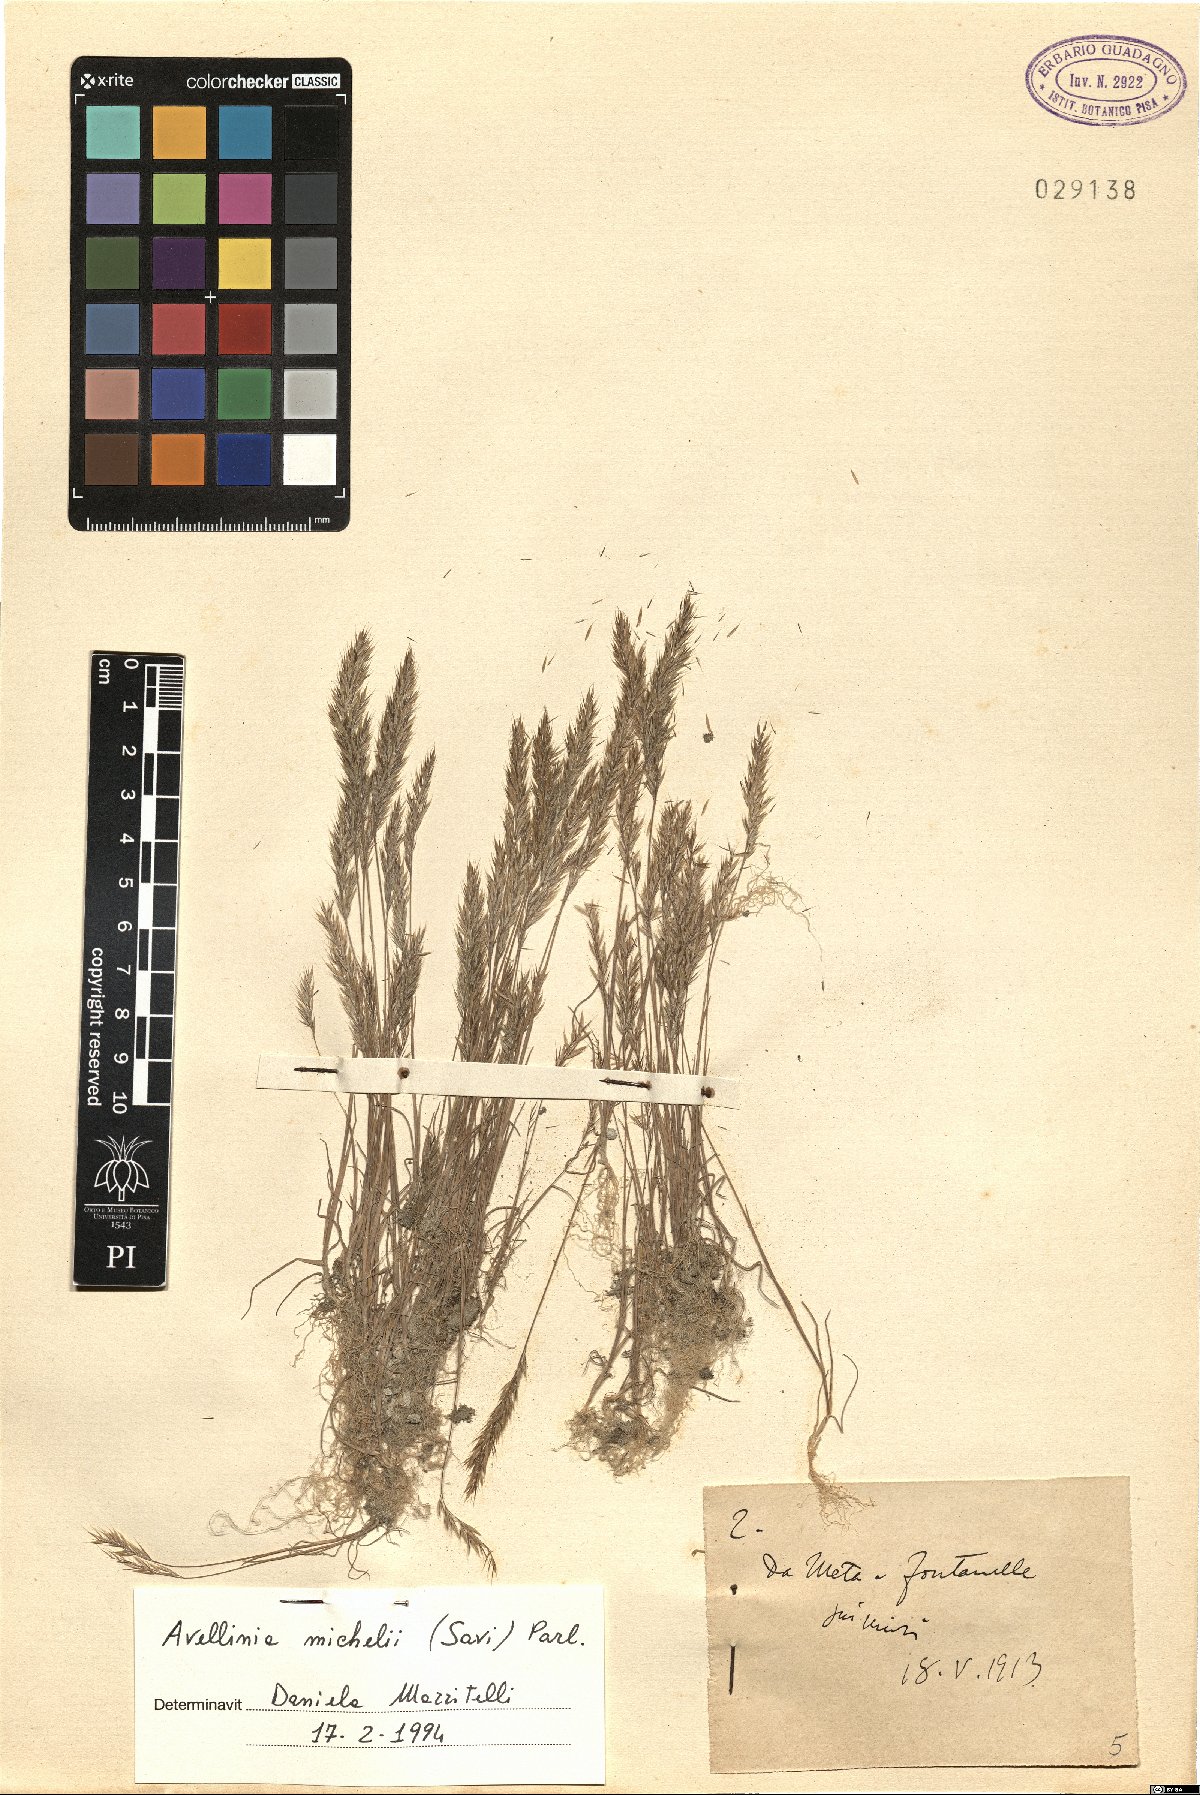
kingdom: Plantae
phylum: Tracheophyta
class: Liliopsida
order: Poales
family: Poaceae
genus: Avellinia
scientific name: Avellinia festucoides
